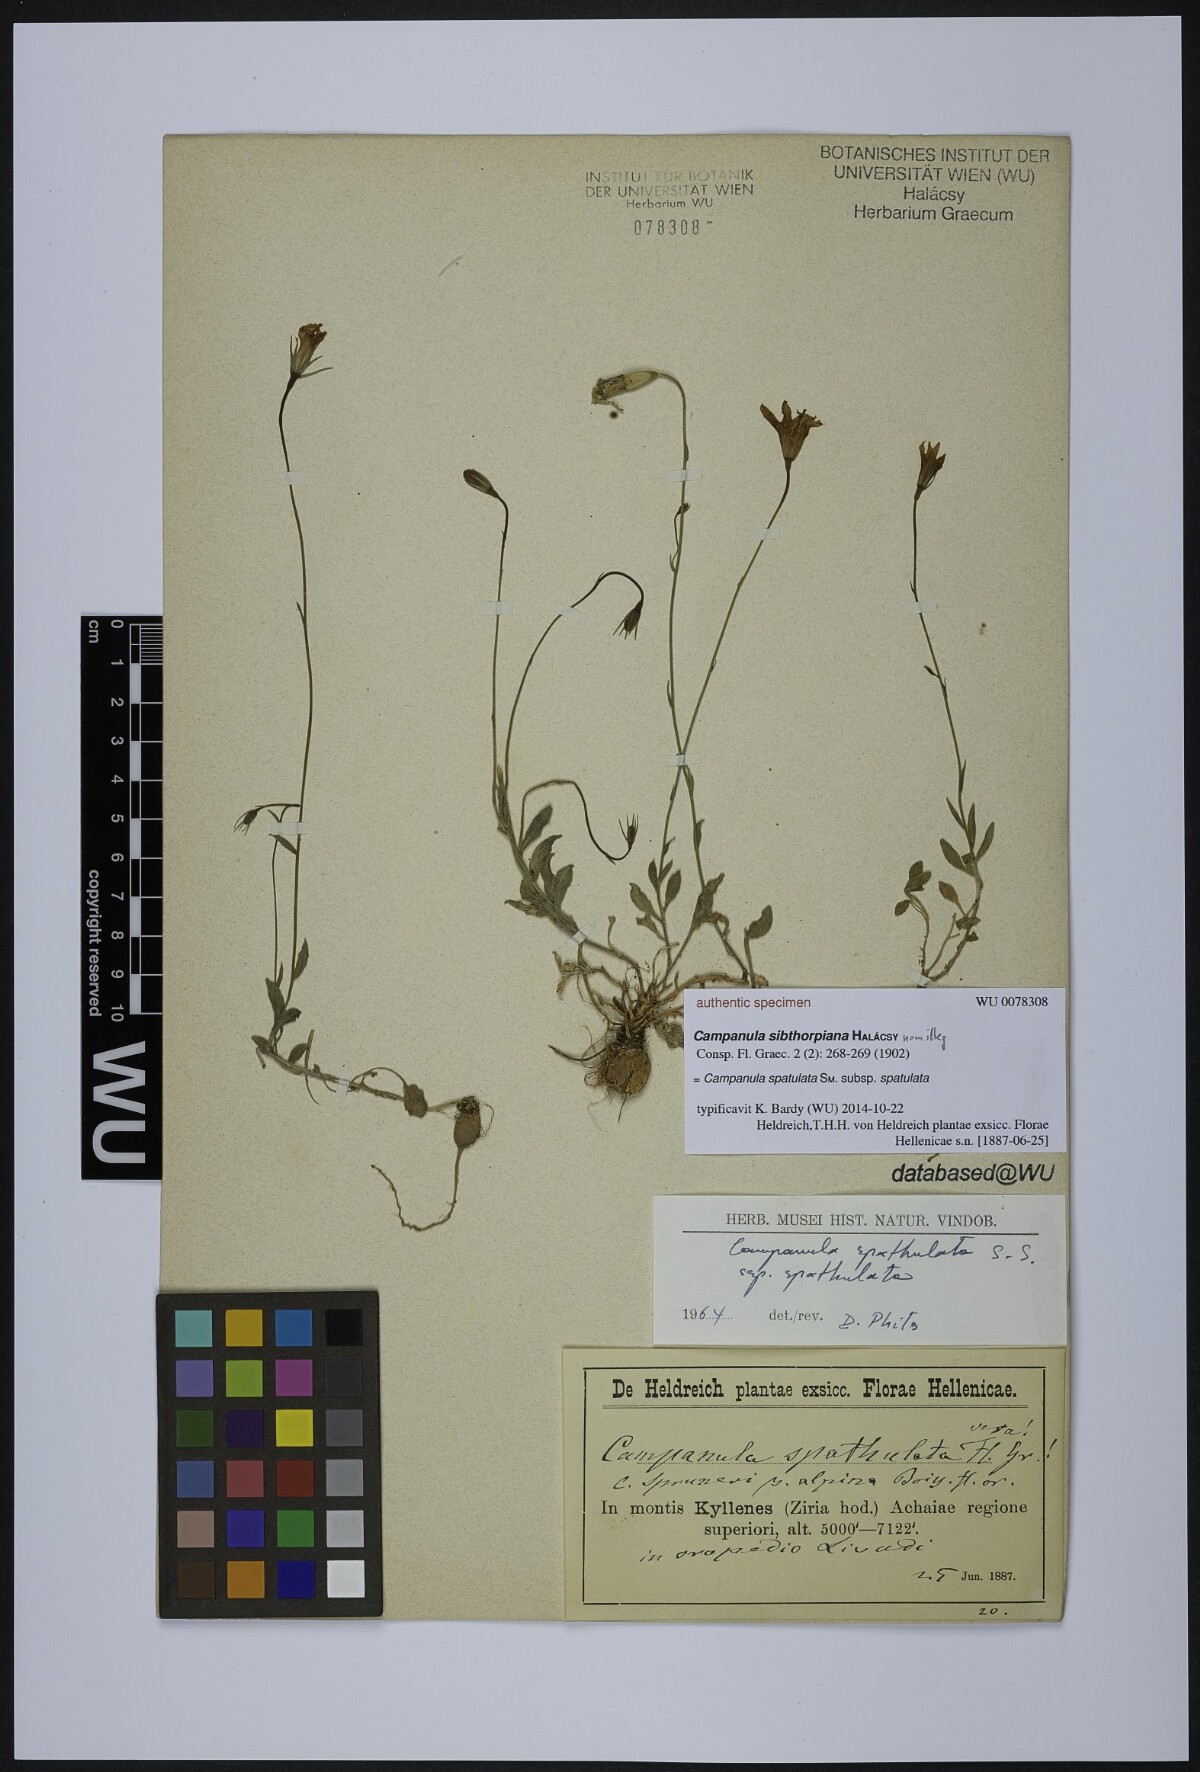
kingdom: Plantae
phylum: Tracheophyta
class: Magnoliopsida
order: Asterales
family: Campanulaceae
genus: Campanula
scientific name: Campanula spatulata
